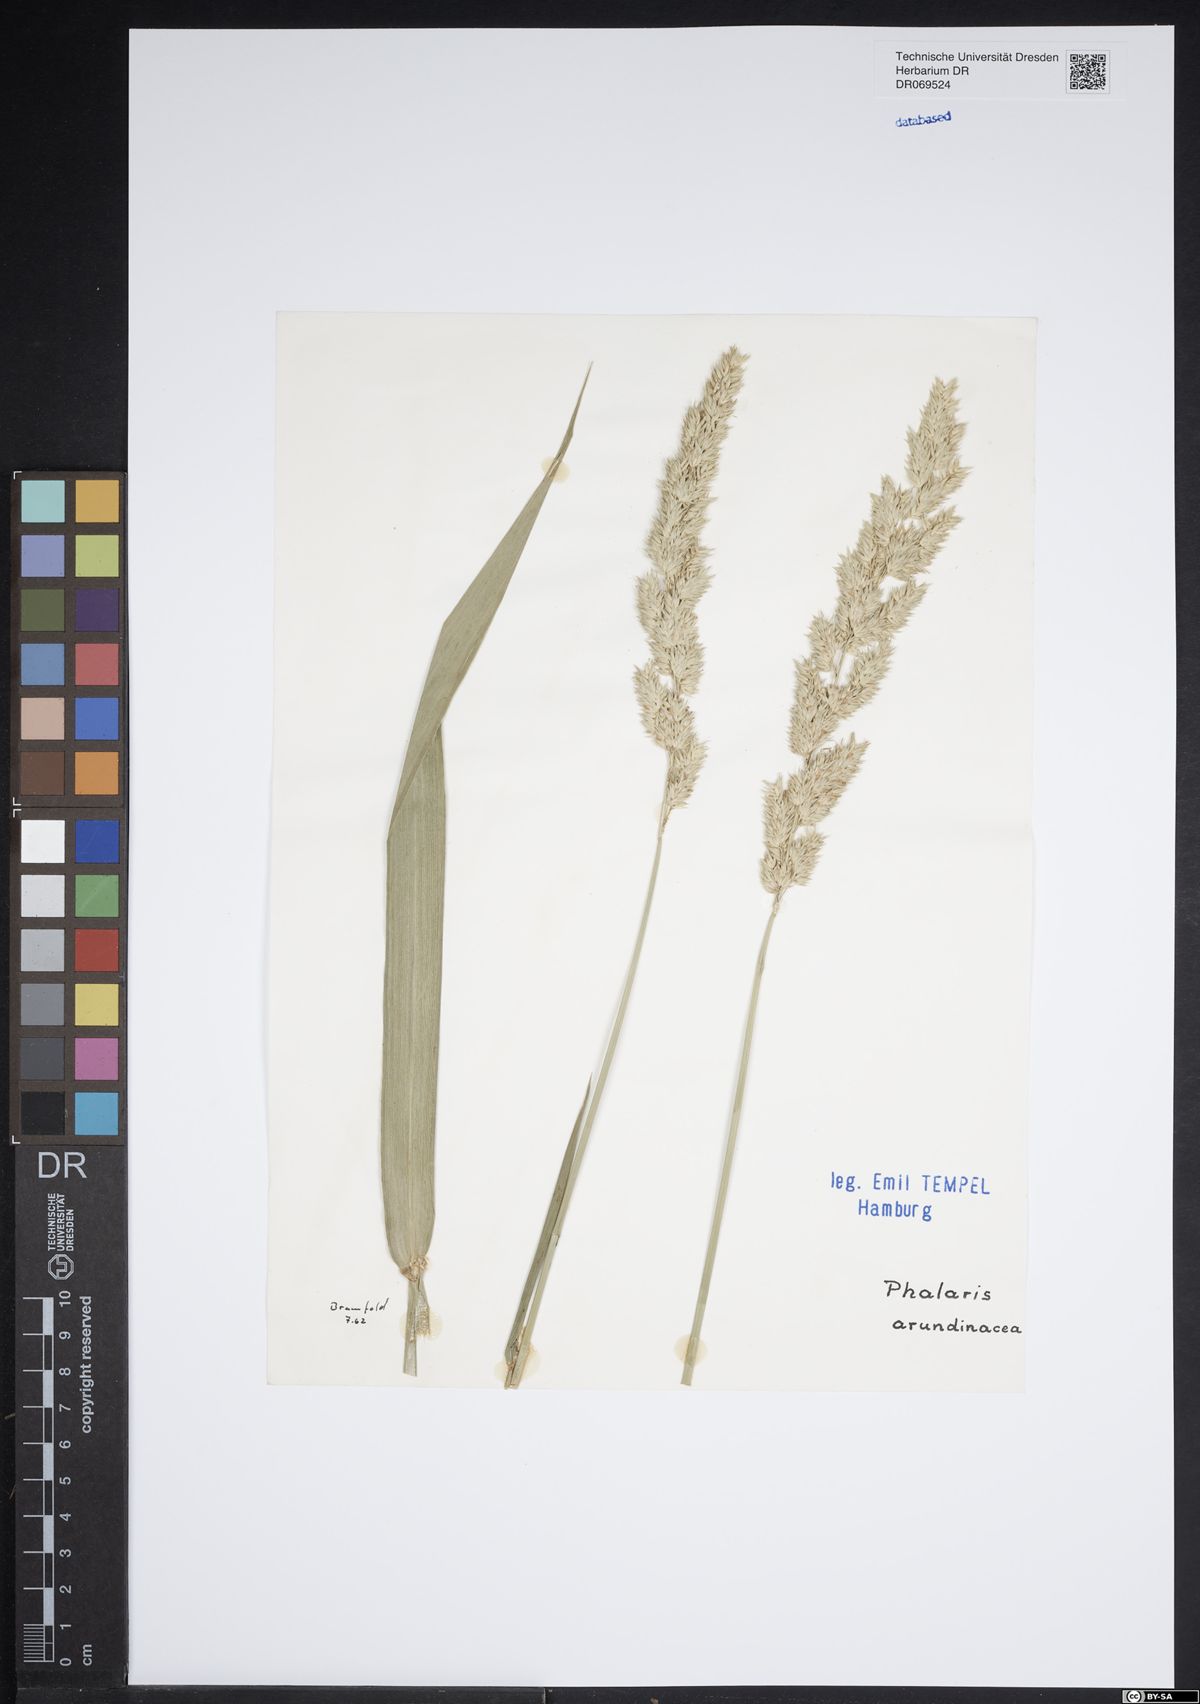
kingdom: Plantae
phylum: Tracheophyta
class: Liliopsida
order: Poales
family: Poaceae
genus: Phalaris
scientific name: Phalaris arundinacea
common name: Reed canary-grass
